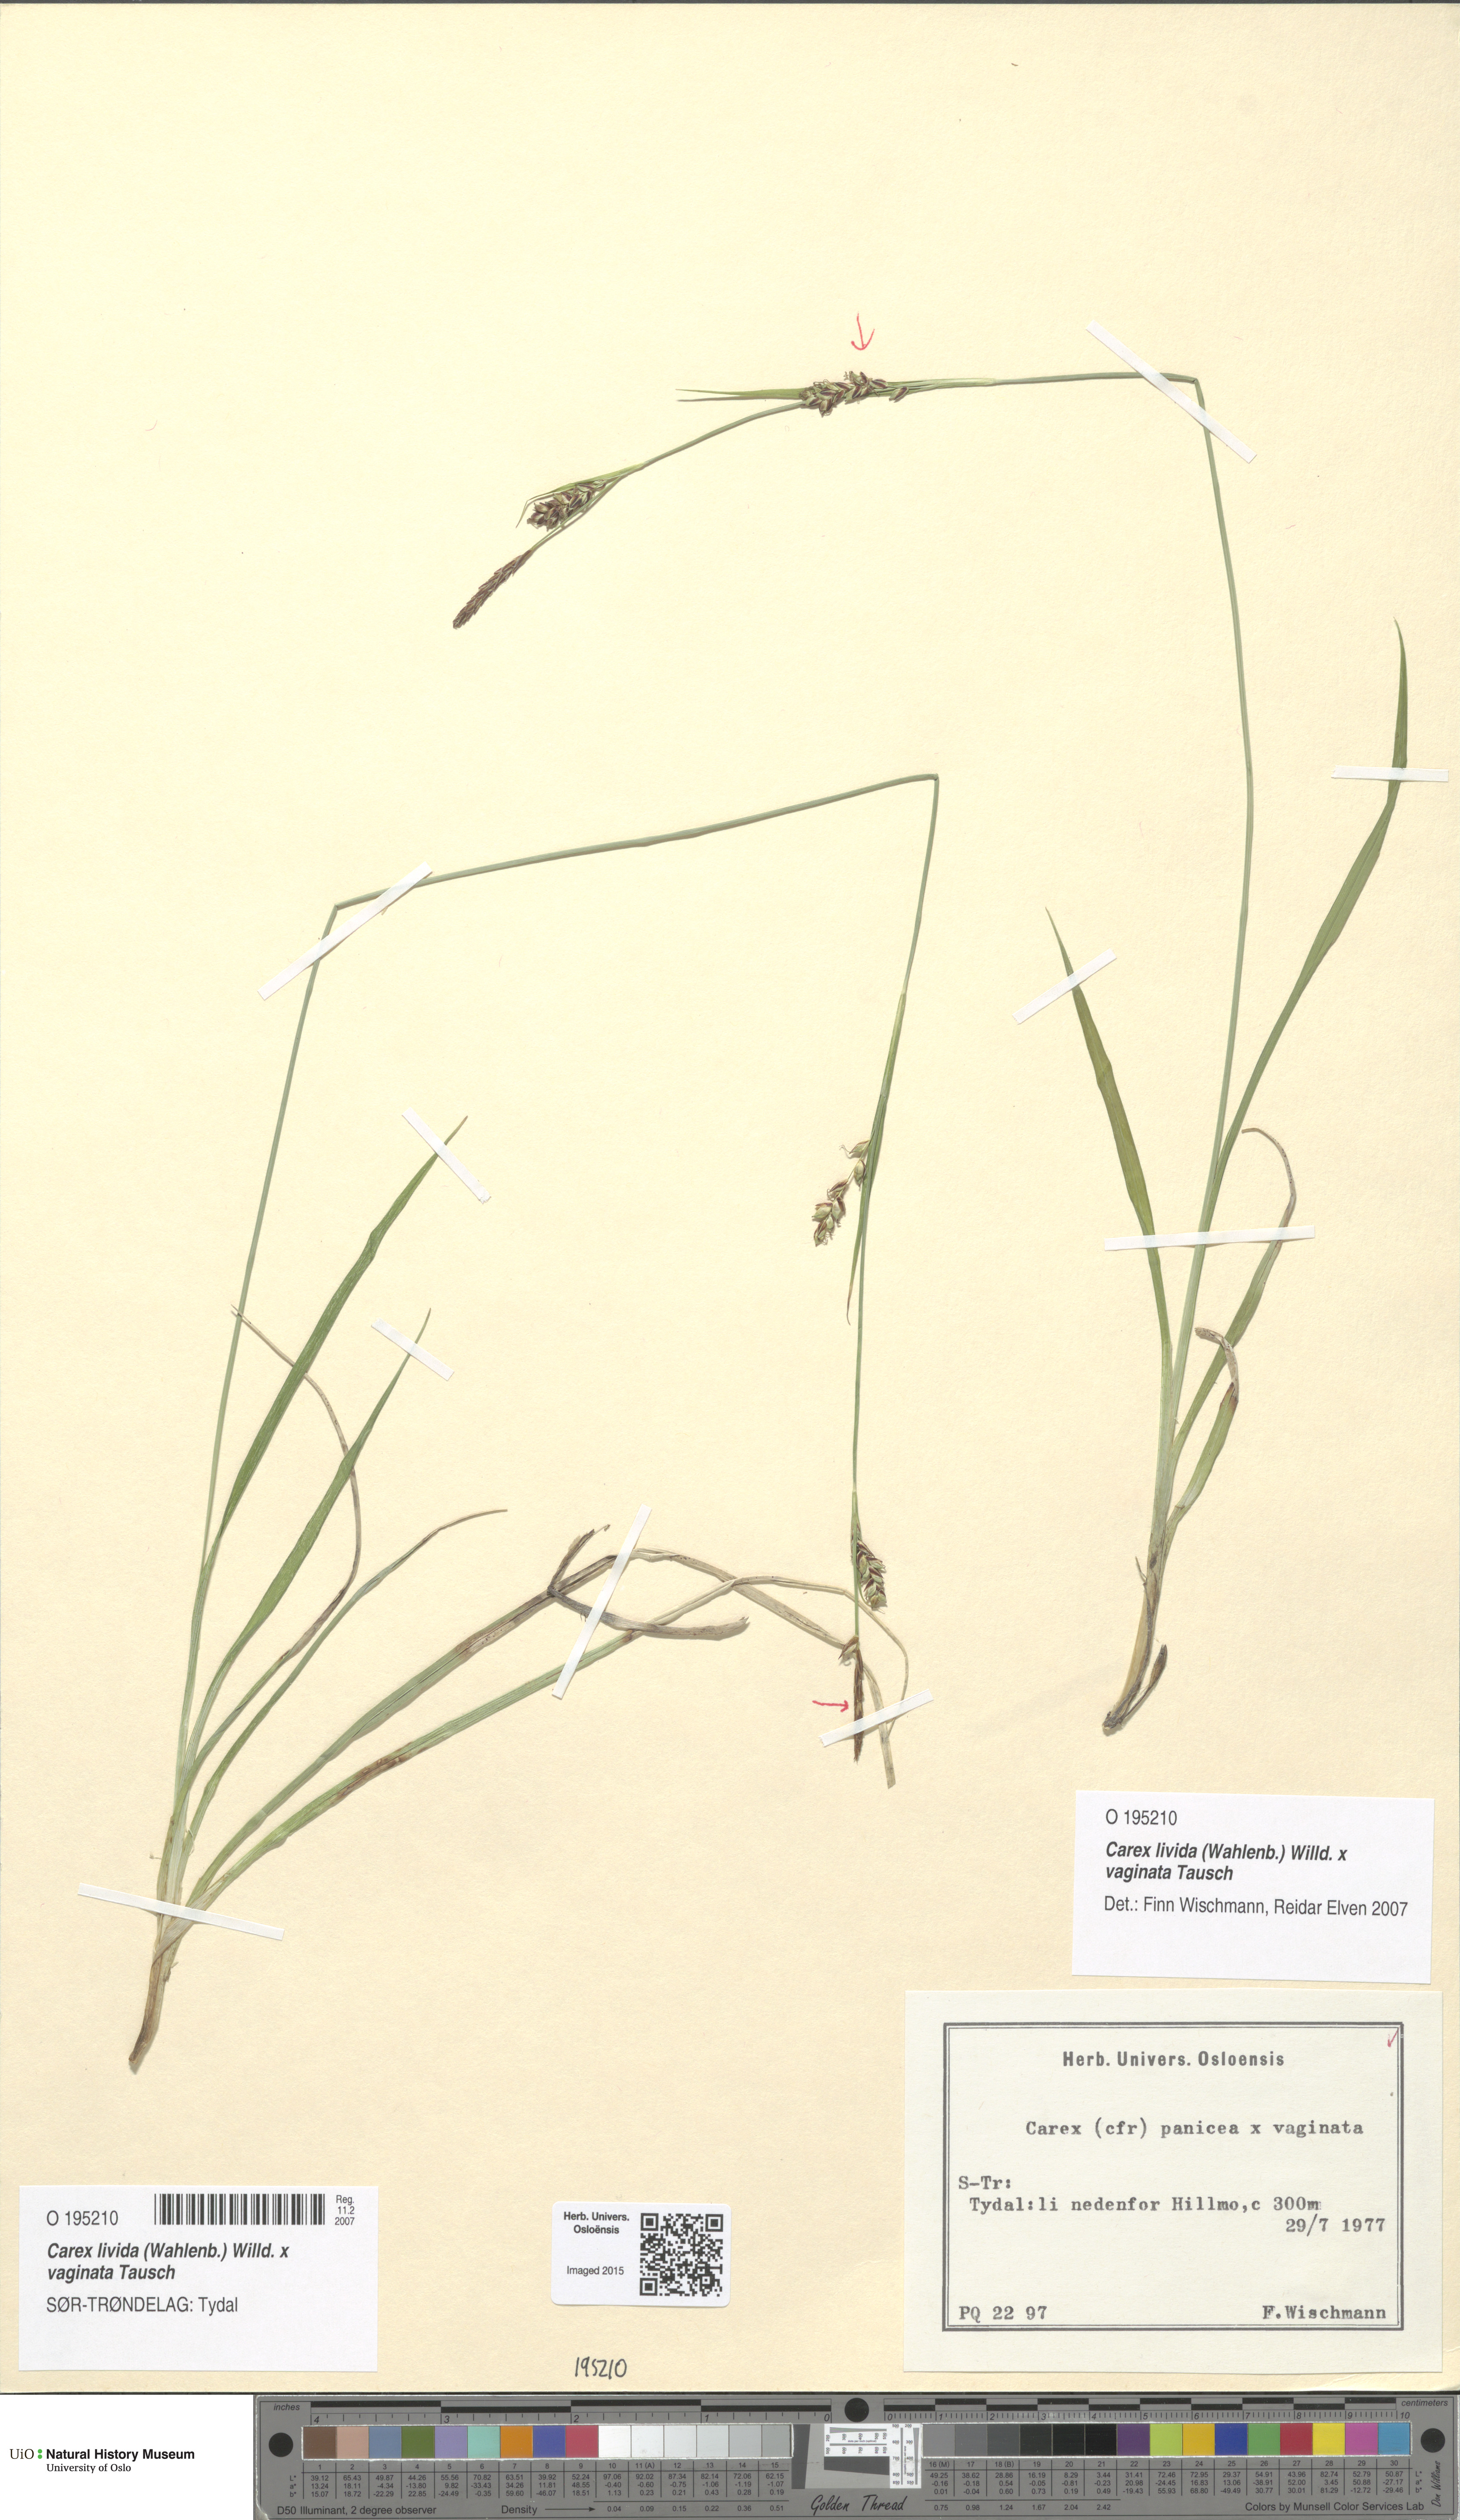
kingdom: Plantae
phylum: Tracheophyta
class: Liliopsida
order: Poales
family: Cyperaceae
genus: Carex
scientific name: Carex
